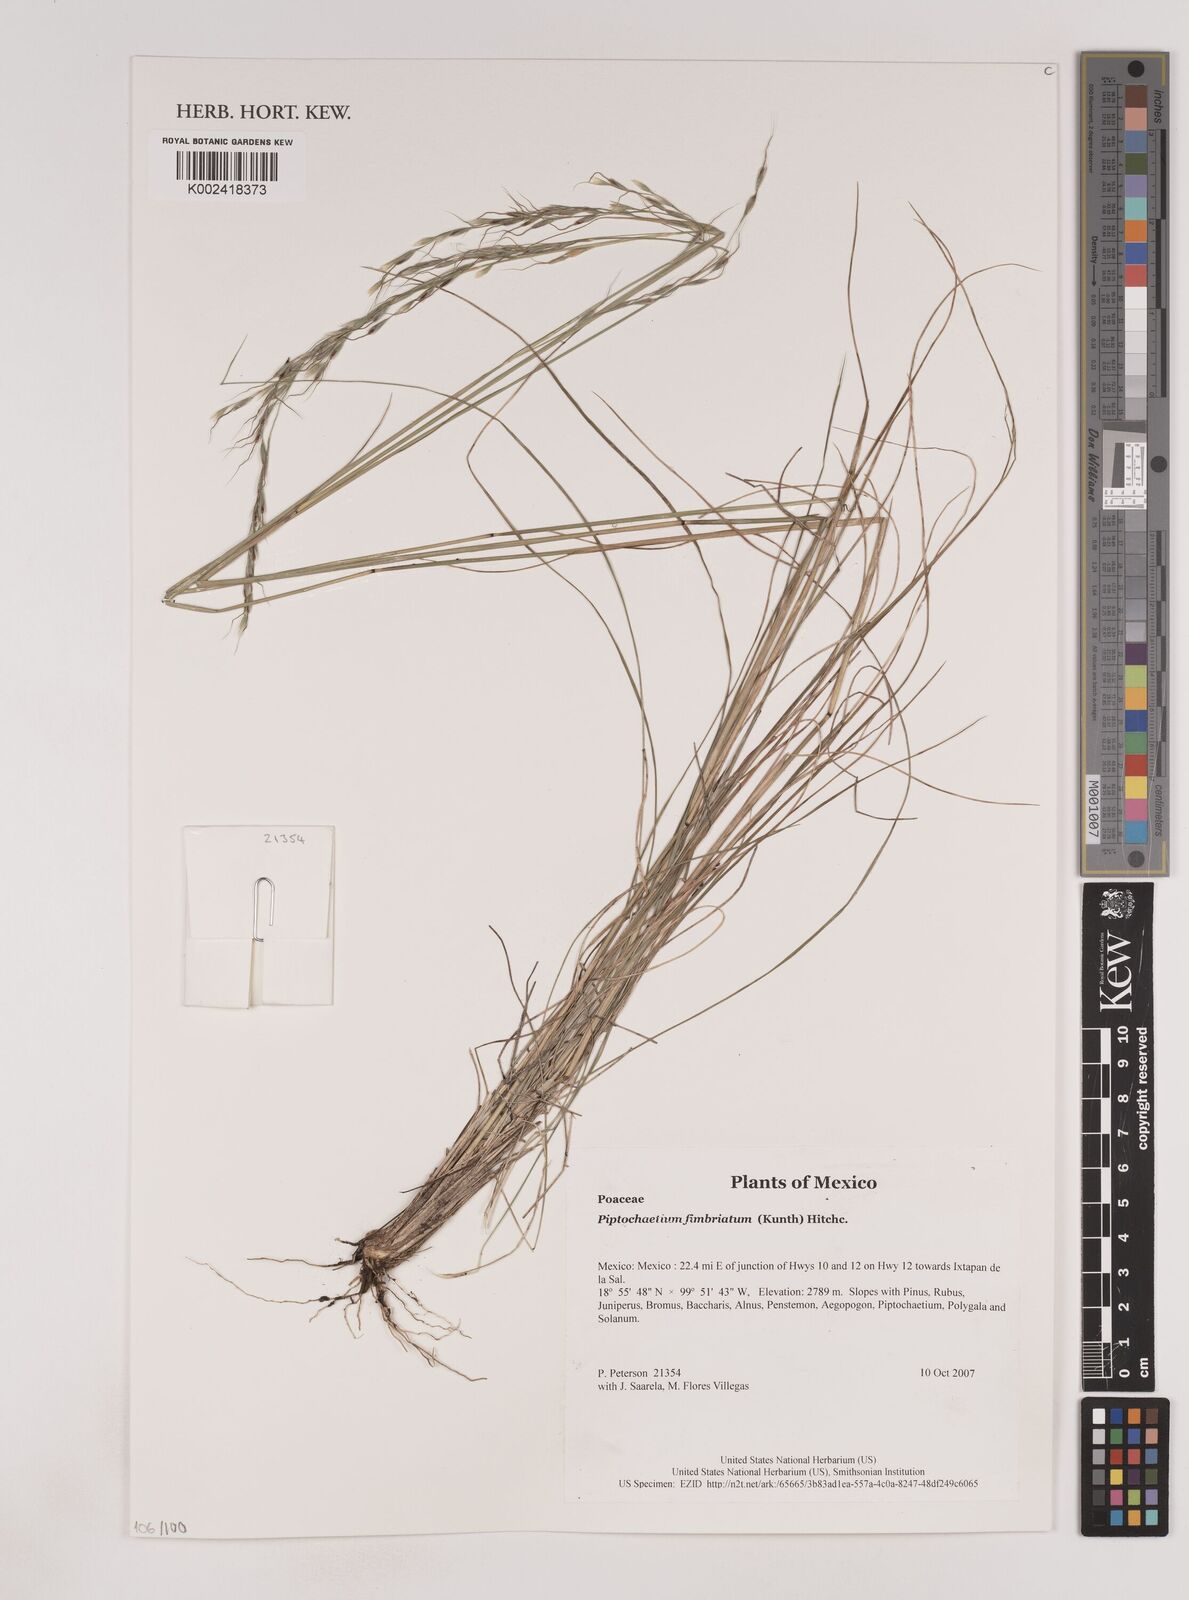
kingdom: Plantae
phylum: Tracheophyta
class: Liliopsida
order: Poales
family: Poaceae
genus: Piptochaetium
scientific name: Piptochaetium fimbriatum
